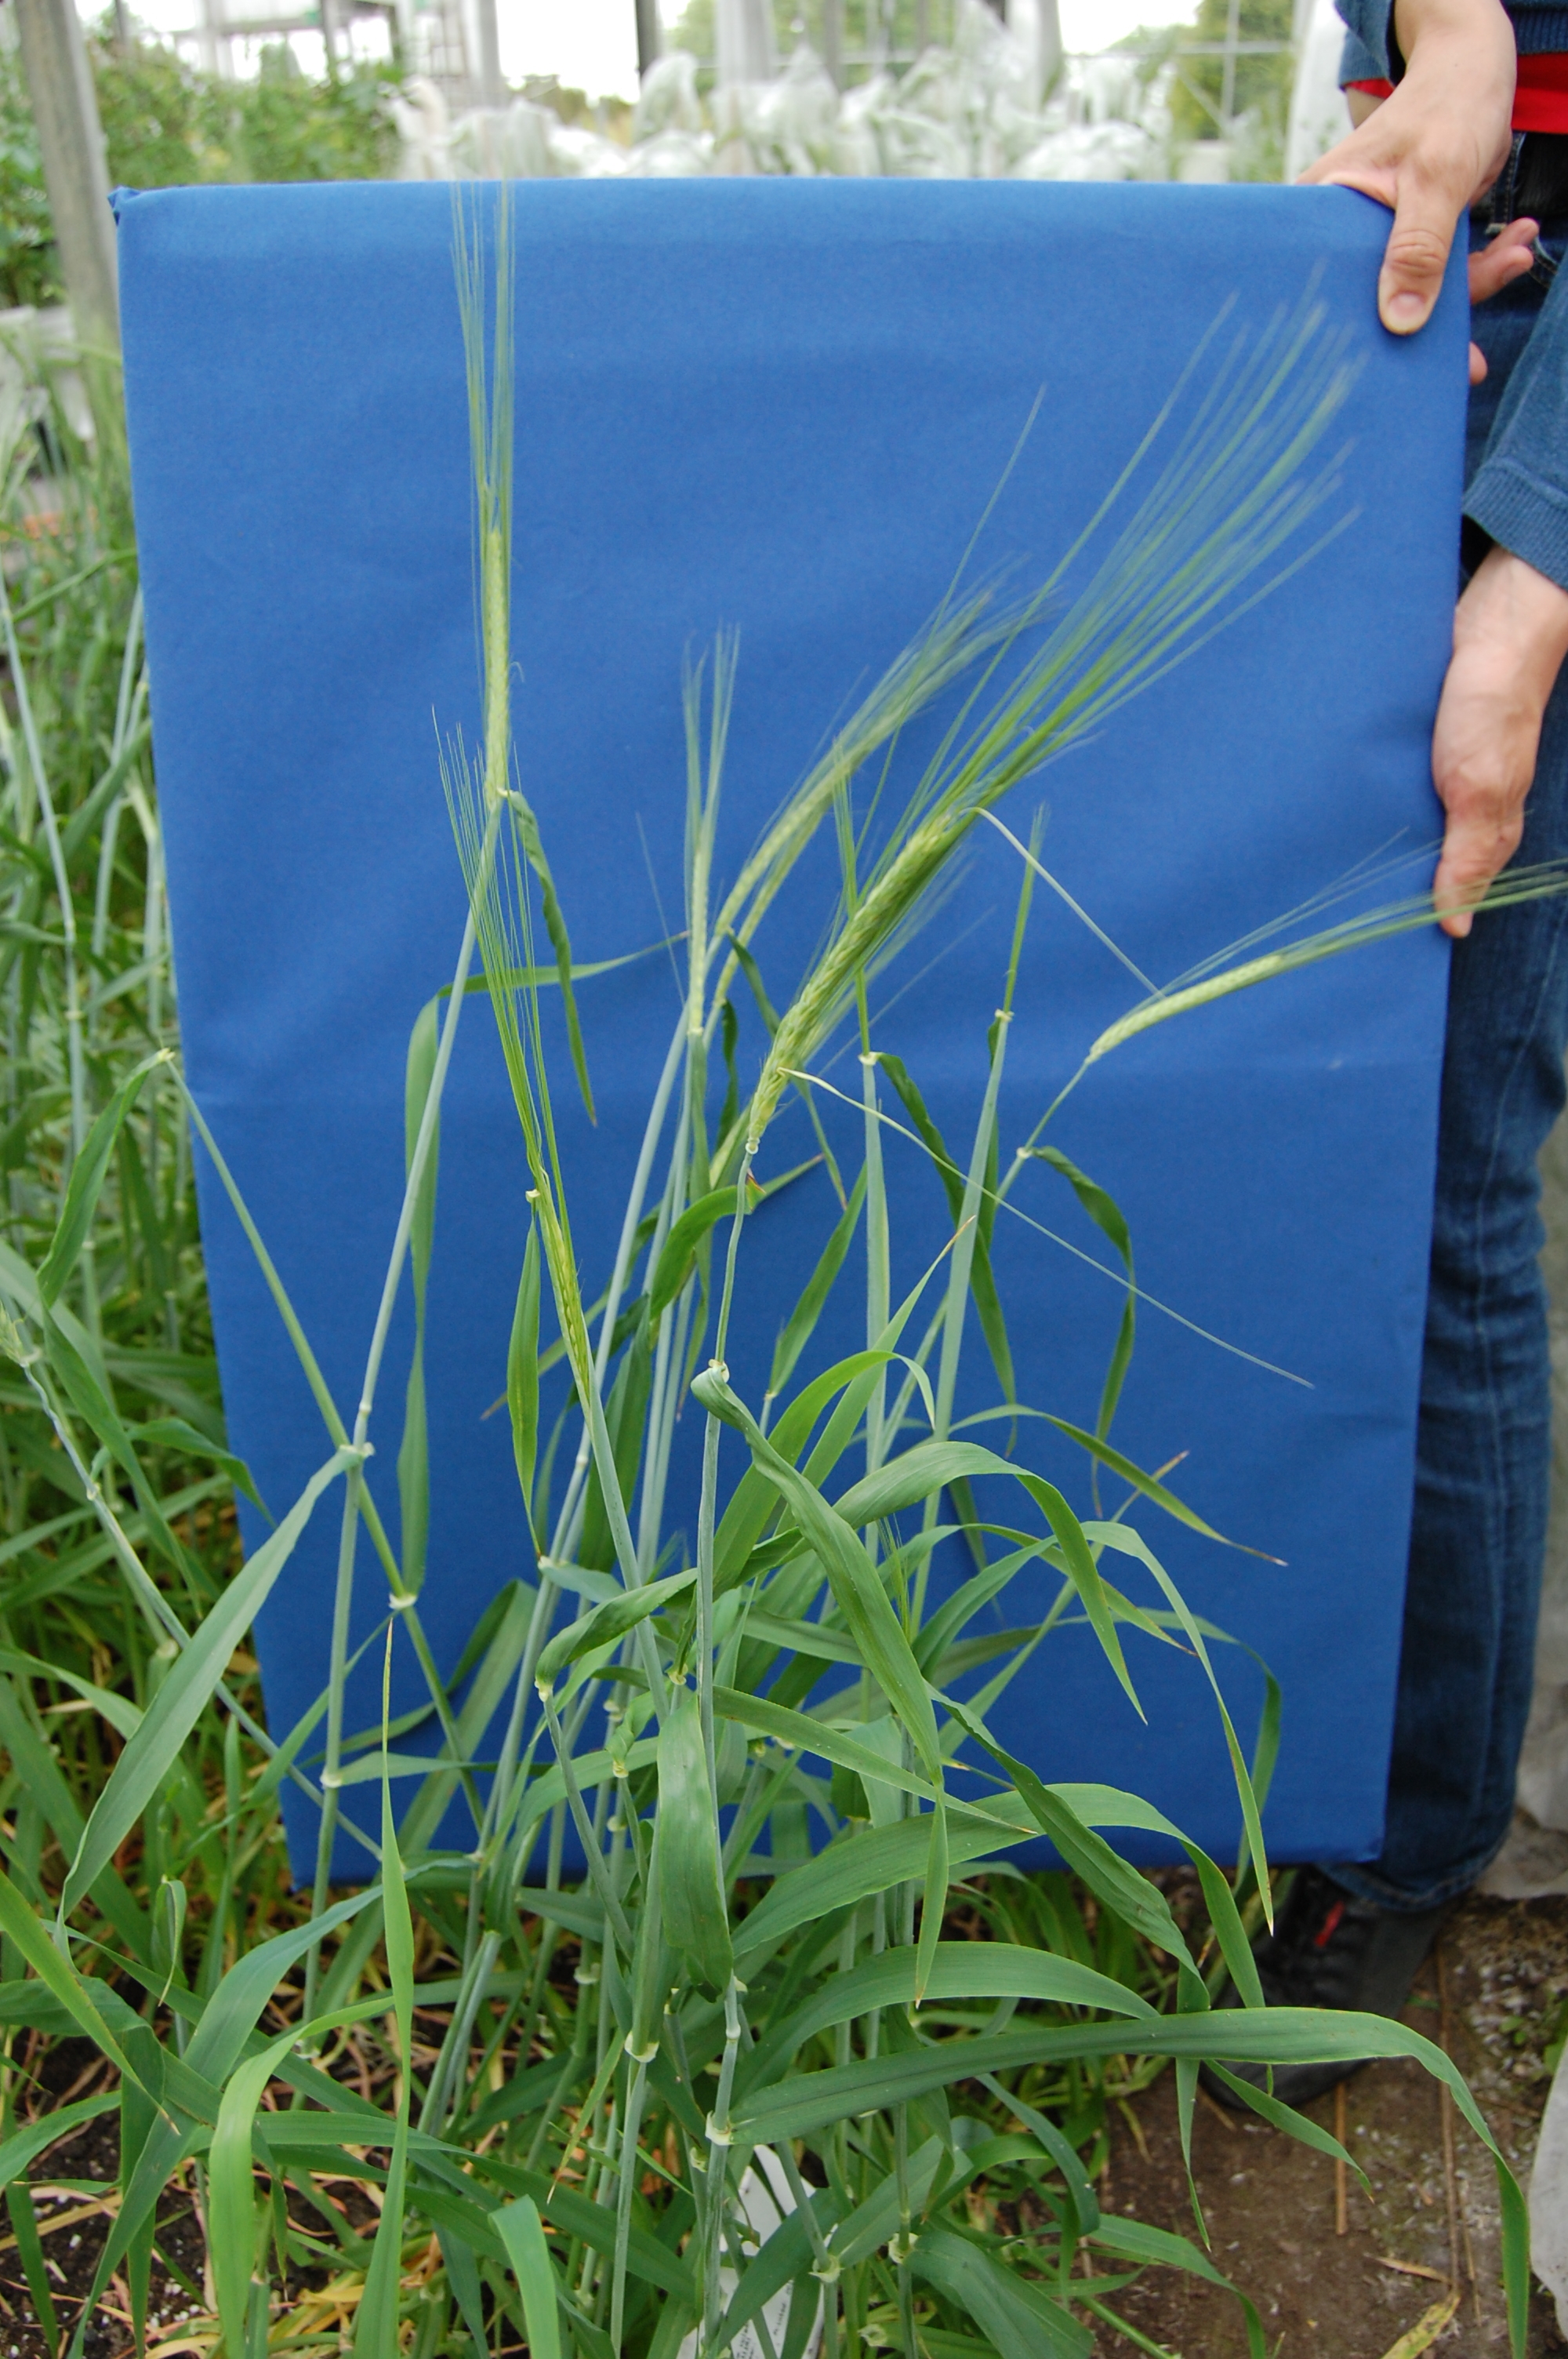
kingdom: Plantae
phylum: Tracheophyta
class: Liliopsida
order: Poales
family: Poaceae
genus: Hordeum
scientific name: Hordeum vulgare
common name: Common barley
